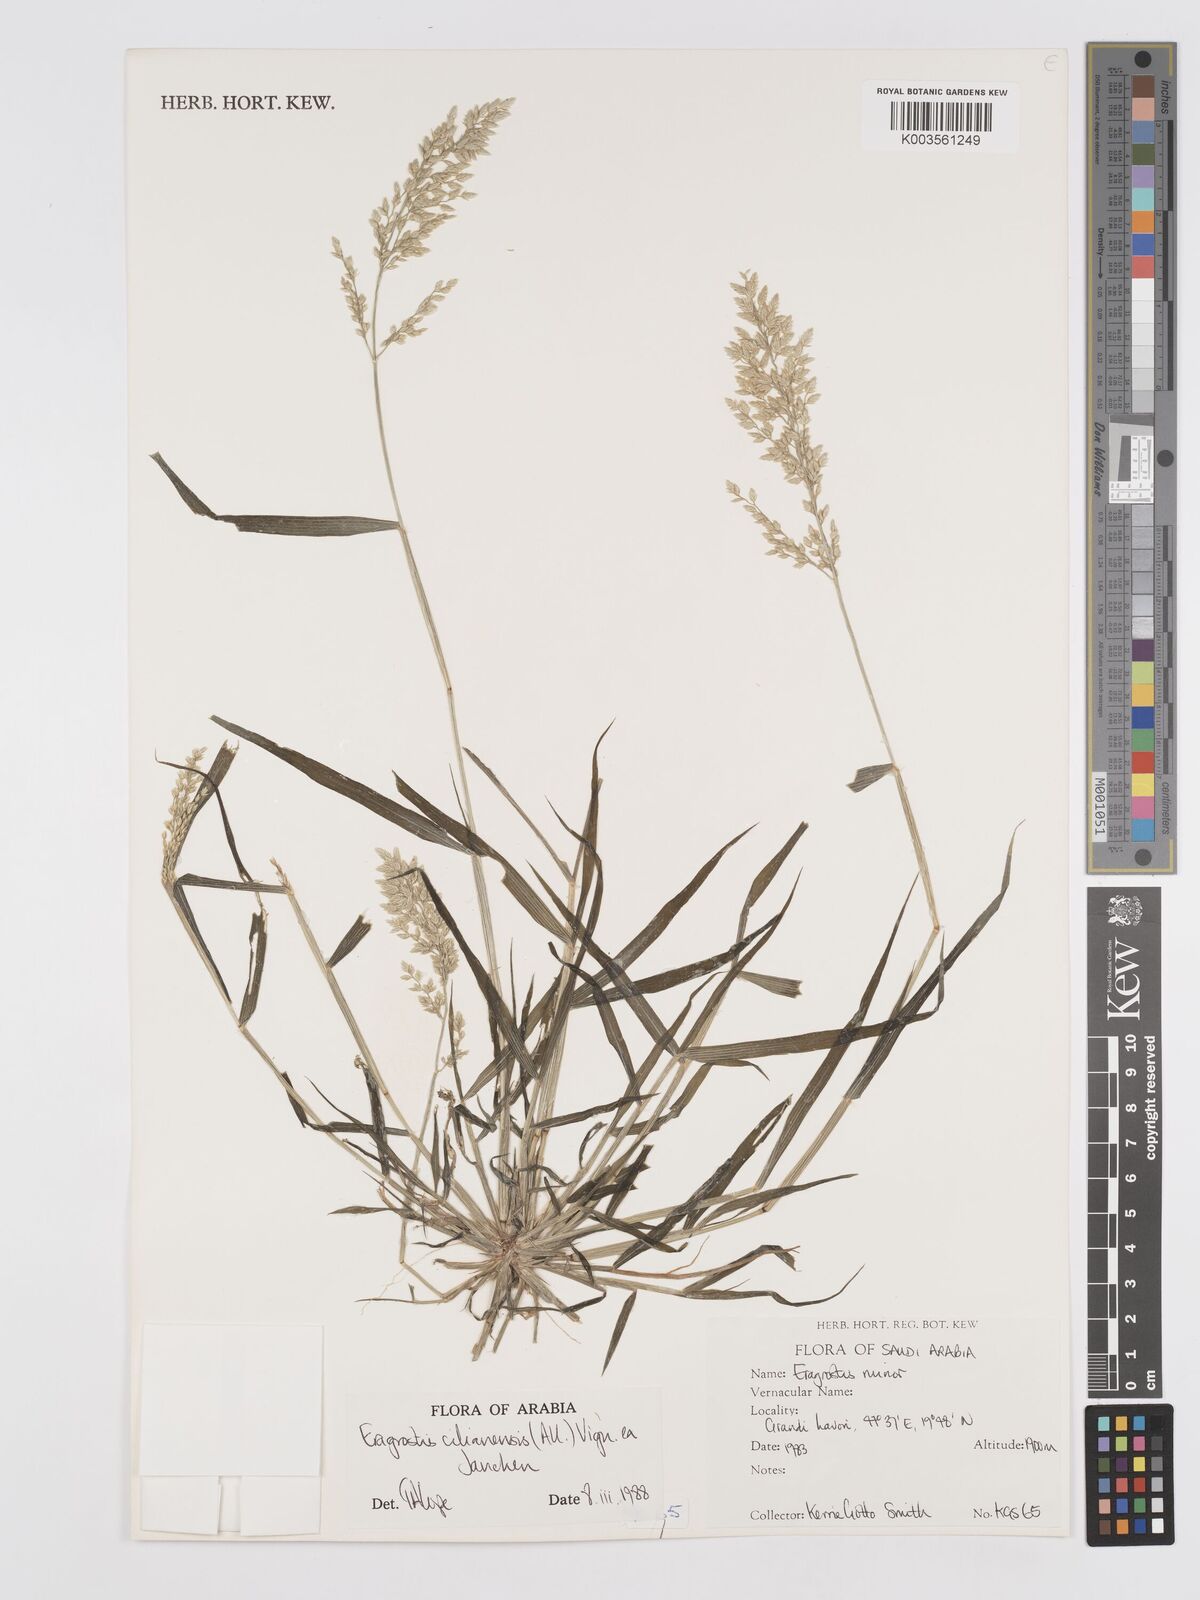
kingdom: Plantae
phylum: Tracheophyta
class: Liliopsida
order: Poales
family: Poaceae
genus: Eragrostis
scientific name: Eragrostis cilianensis
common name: Stinkgrass
